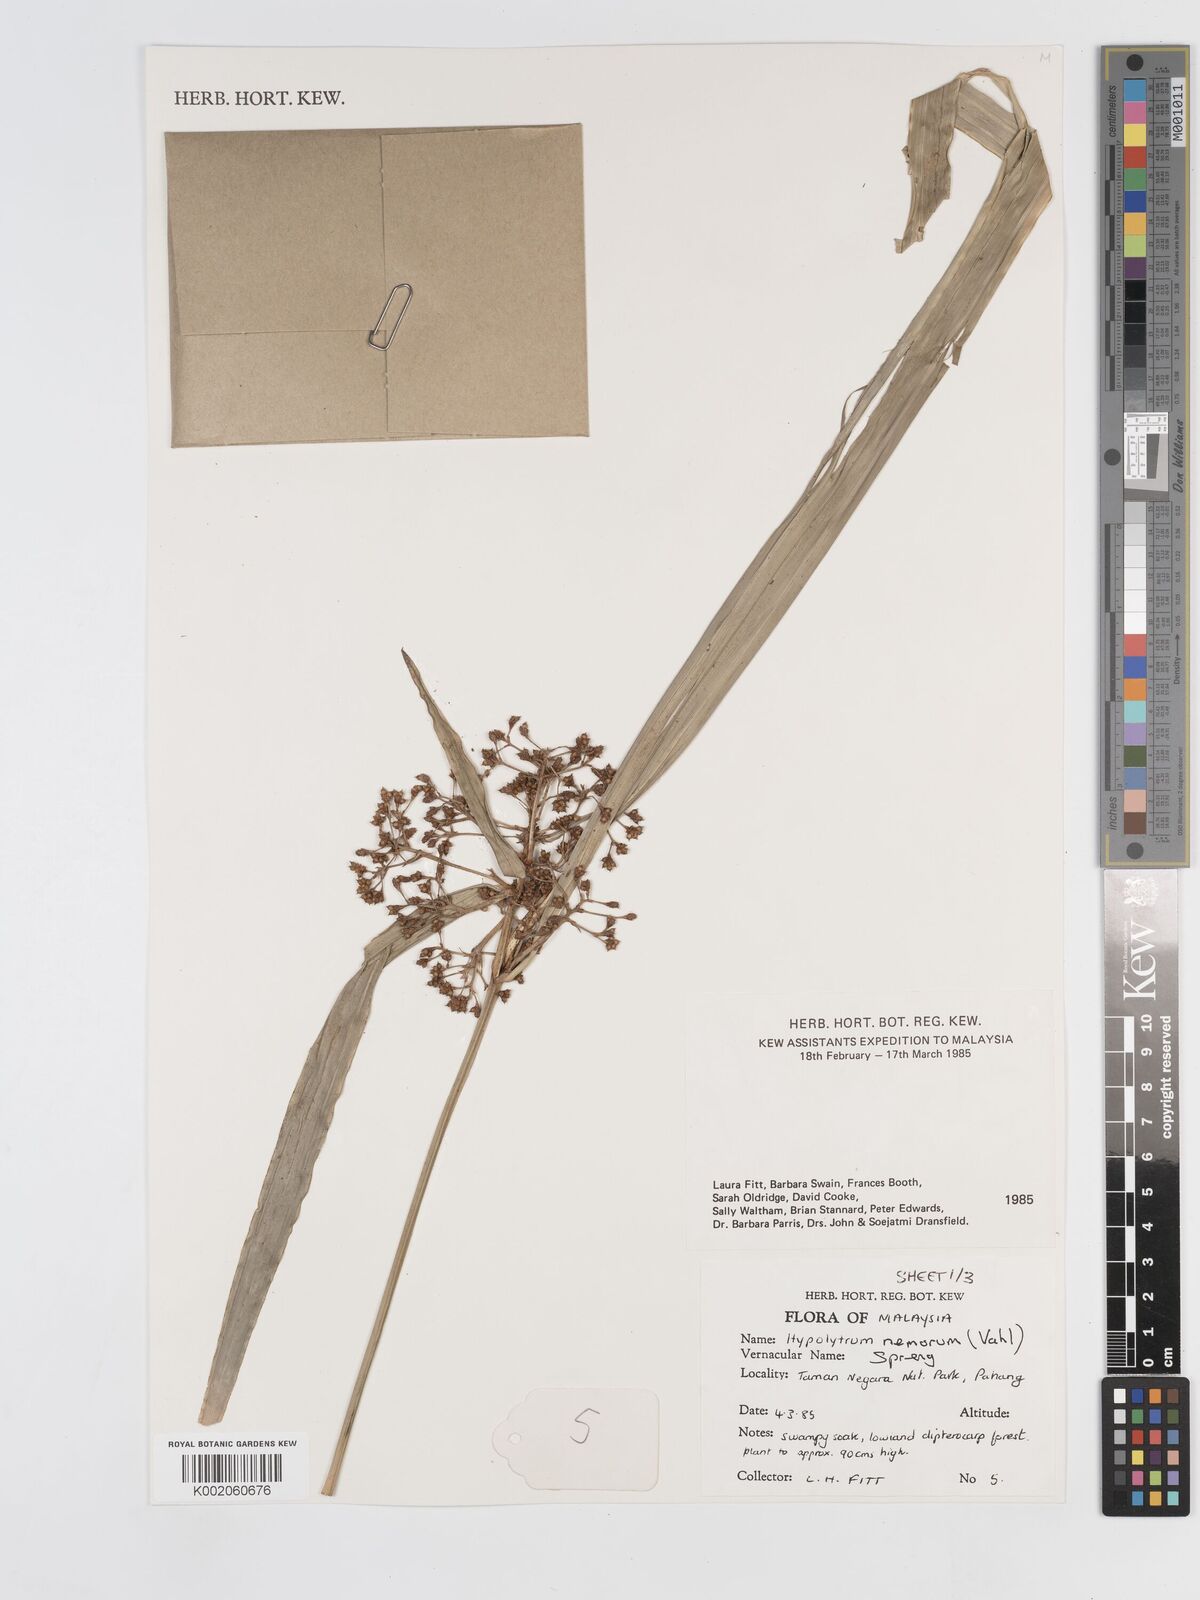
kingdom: Plantae
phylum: Tracheophyta
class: Liliopsida
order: Poales
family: Cyperaceae
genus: Hypolytrum
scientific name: Hypolytrum nemorum
